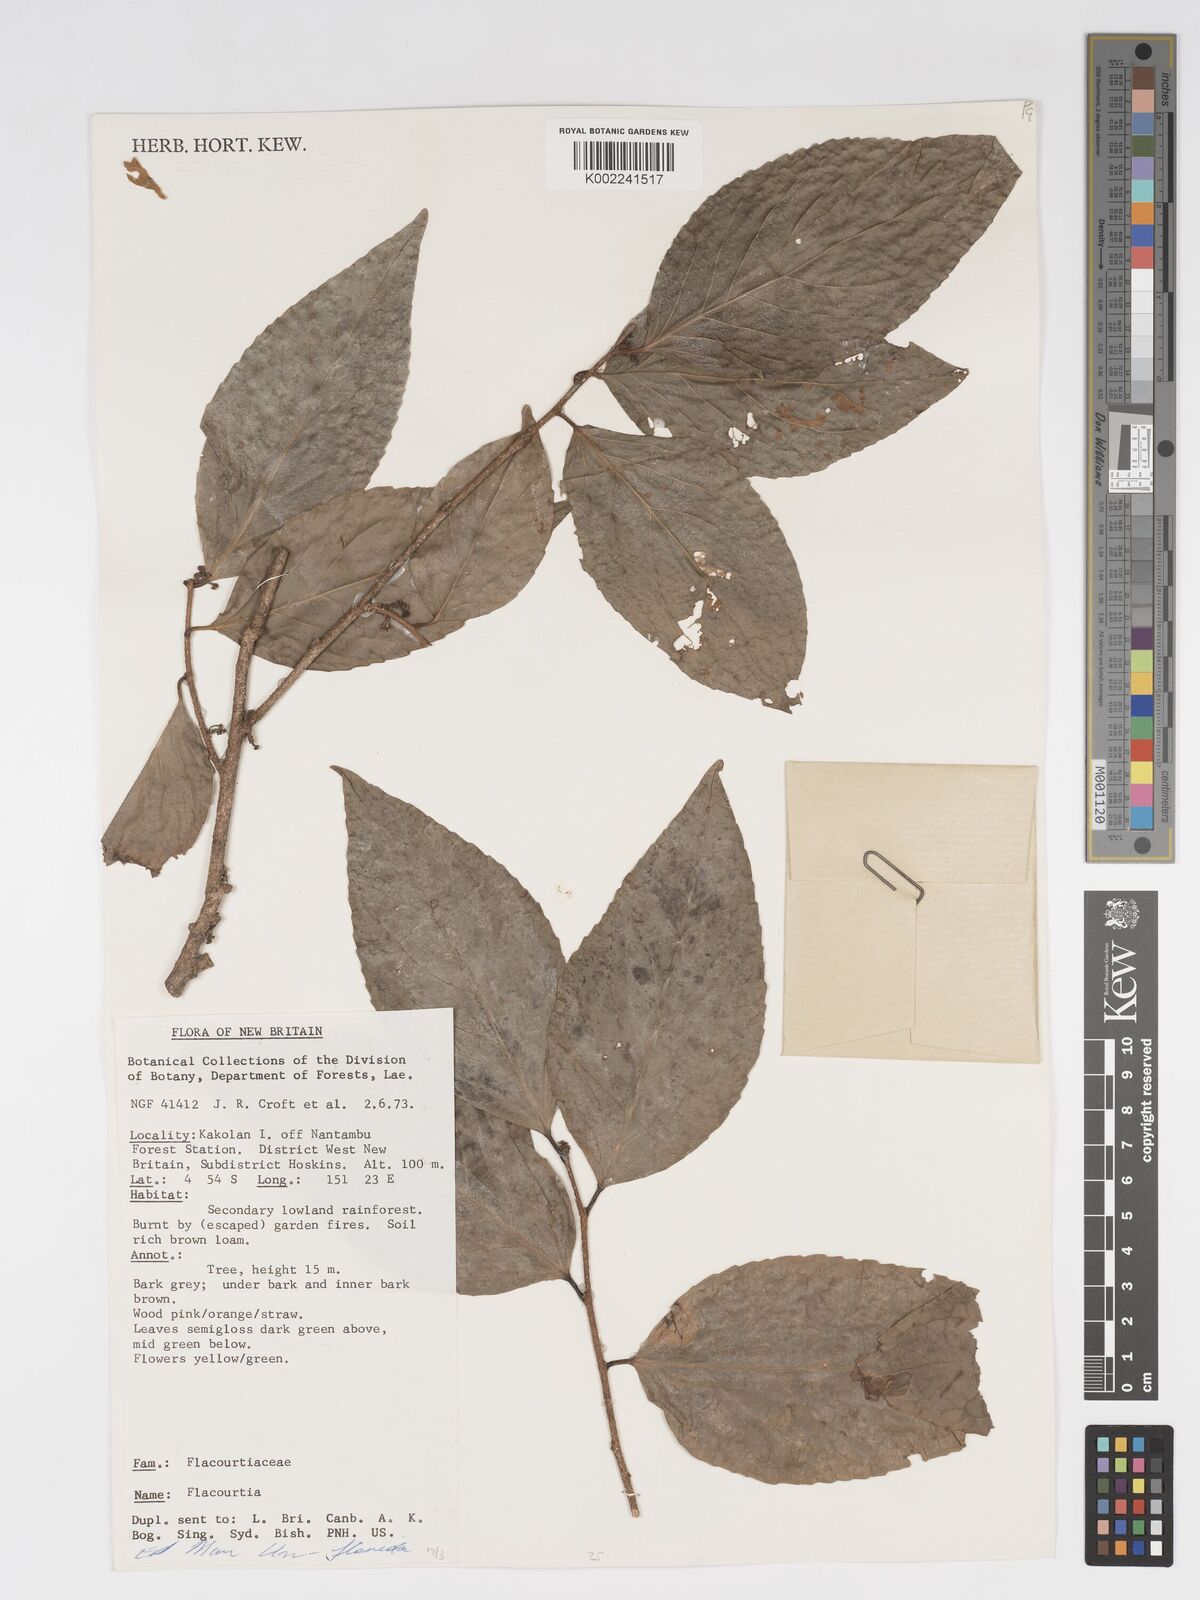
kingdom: Plantae
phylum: Tracheophyta
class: Magnoliopsida
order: Malpighiales
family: Salicaceae
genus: Flacourtia
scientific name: Flacourtia
